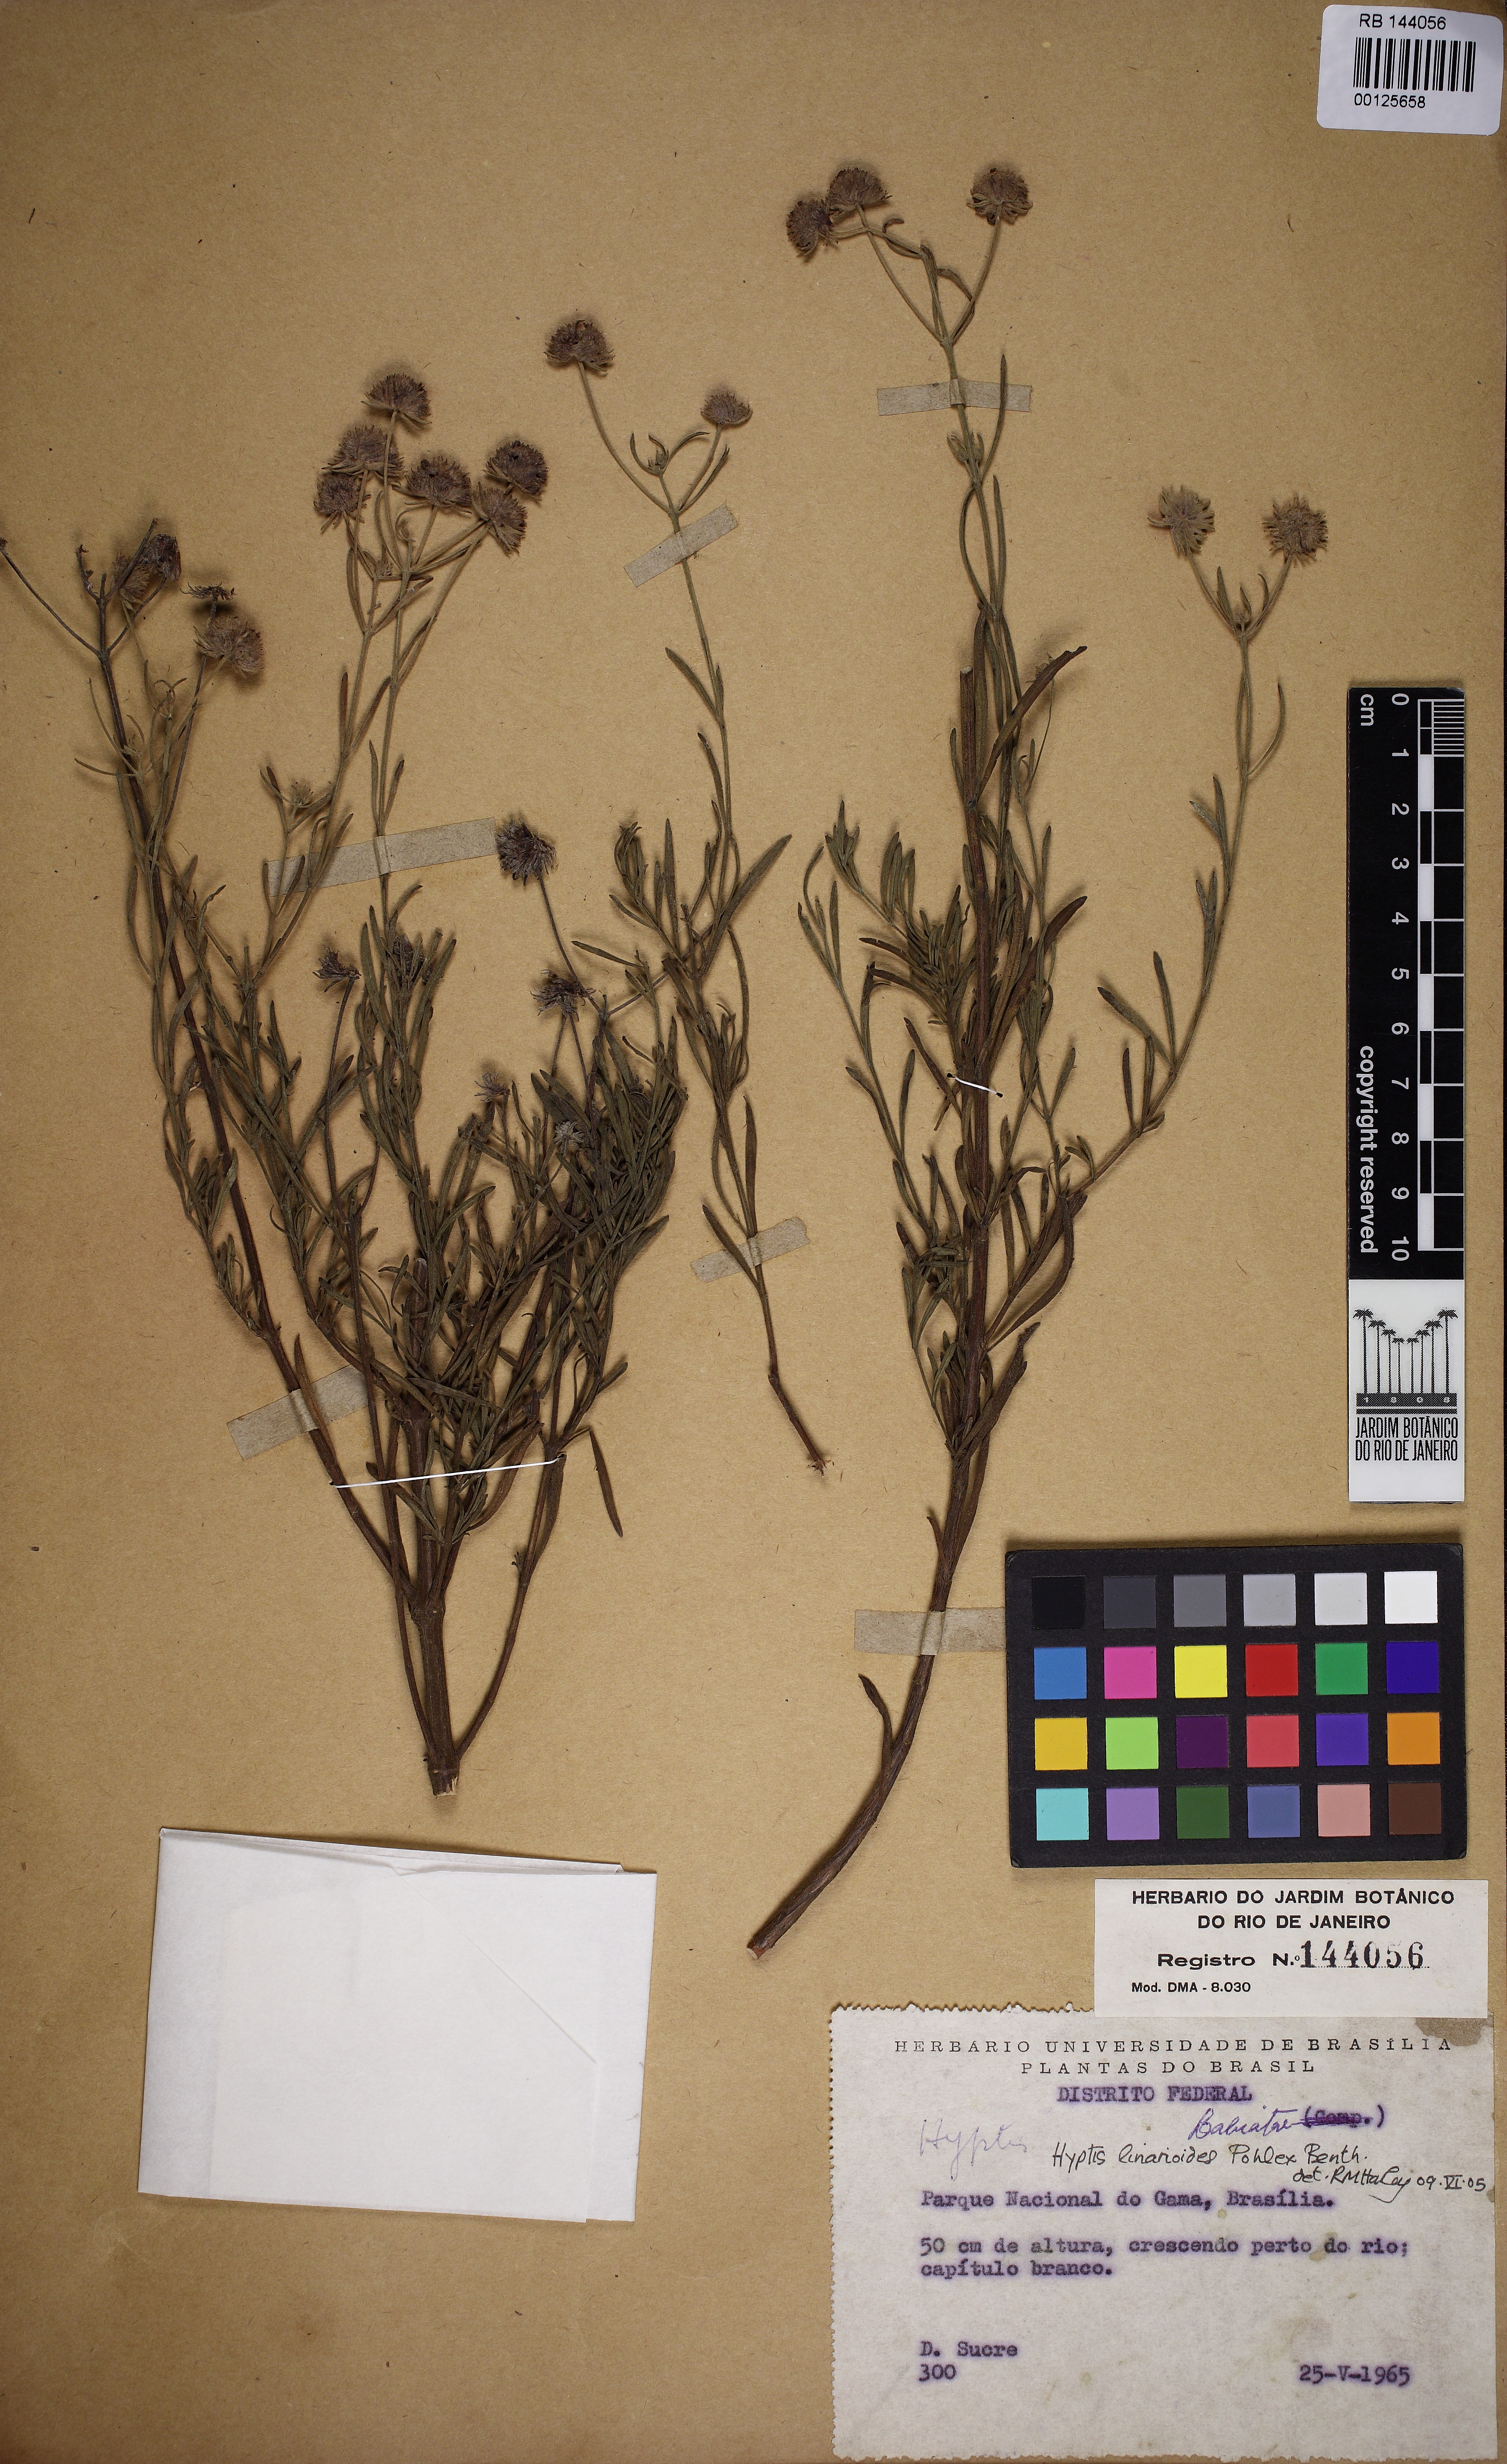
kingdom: Plantae
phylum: Tracheophyta
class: Magnoliopsida
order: Lamiales
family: Lamiaceae
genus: Hyptis
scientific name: Hyptis linarioides
